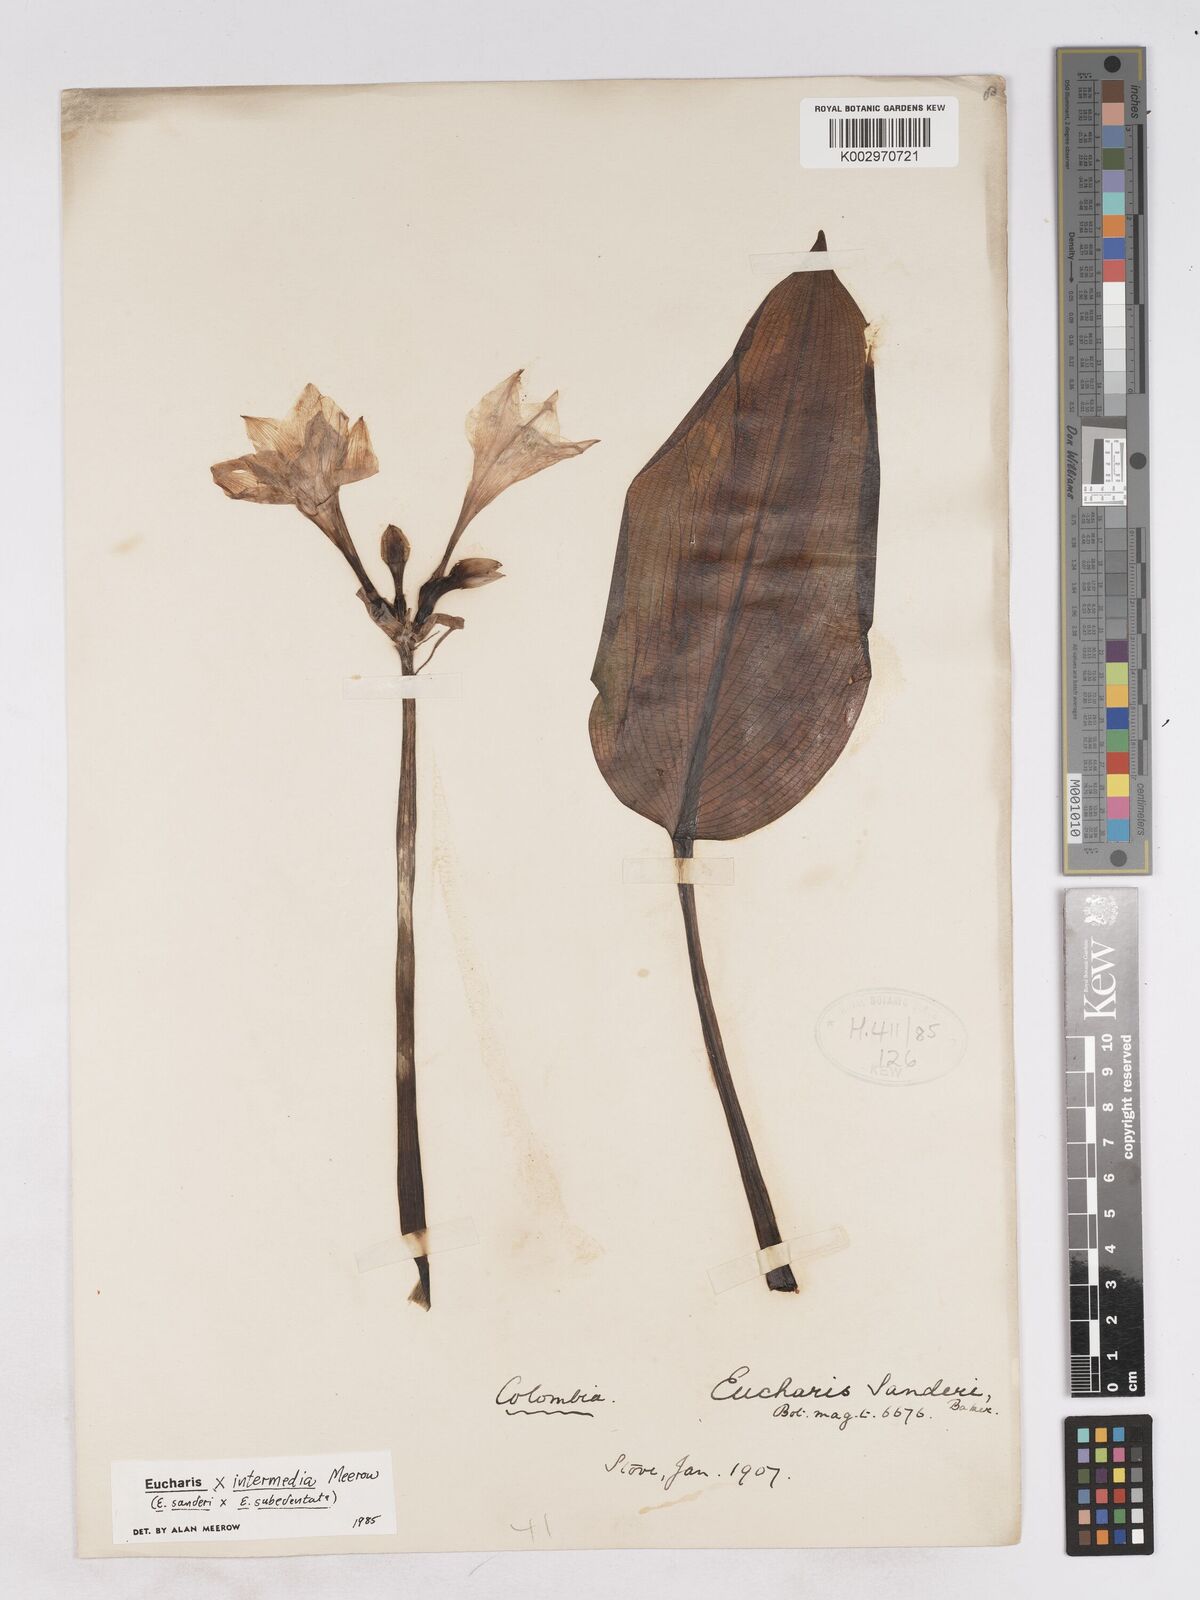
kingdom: Plantae
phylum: Tracheophyta
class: Liliopsida
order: Asparagales
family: Amaryllidaceae
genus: Calicharis
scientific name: Calicharis butcheri
